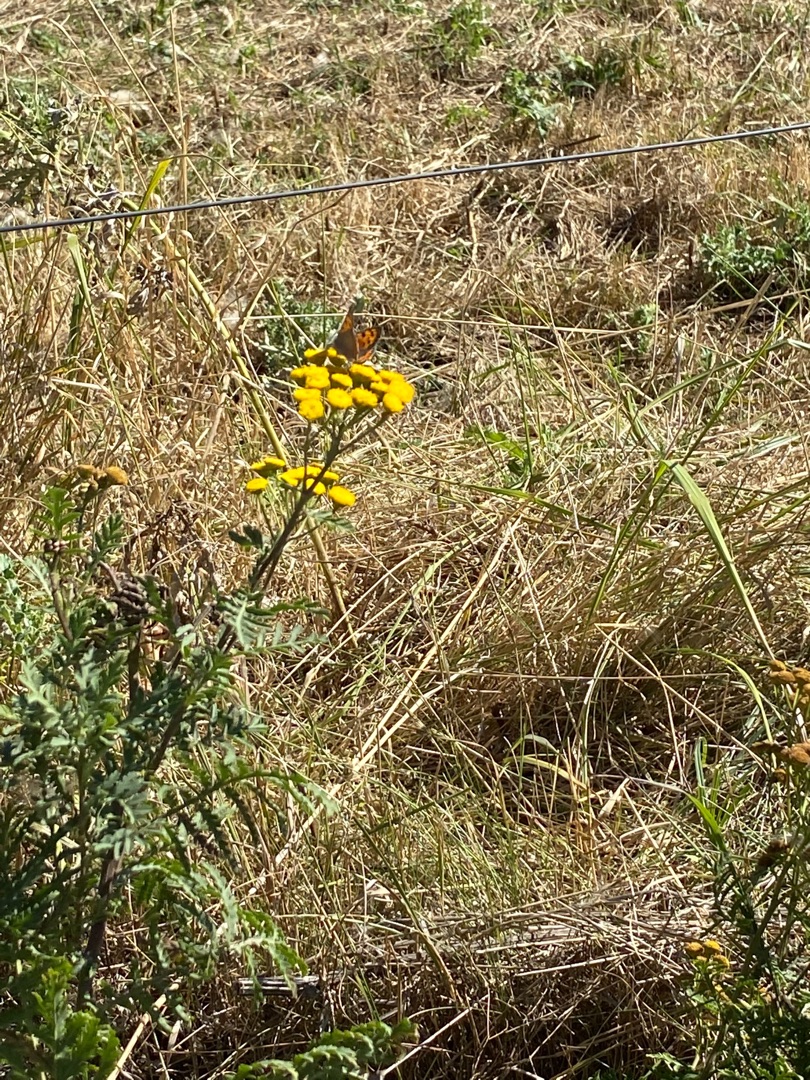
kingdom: Animalia
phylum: Arthropoda
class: Insecta
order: Lepidoptera
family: Lycaenidae
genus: Lycaena
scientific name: Lycaena phlaeas
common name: Lille ildfugl
